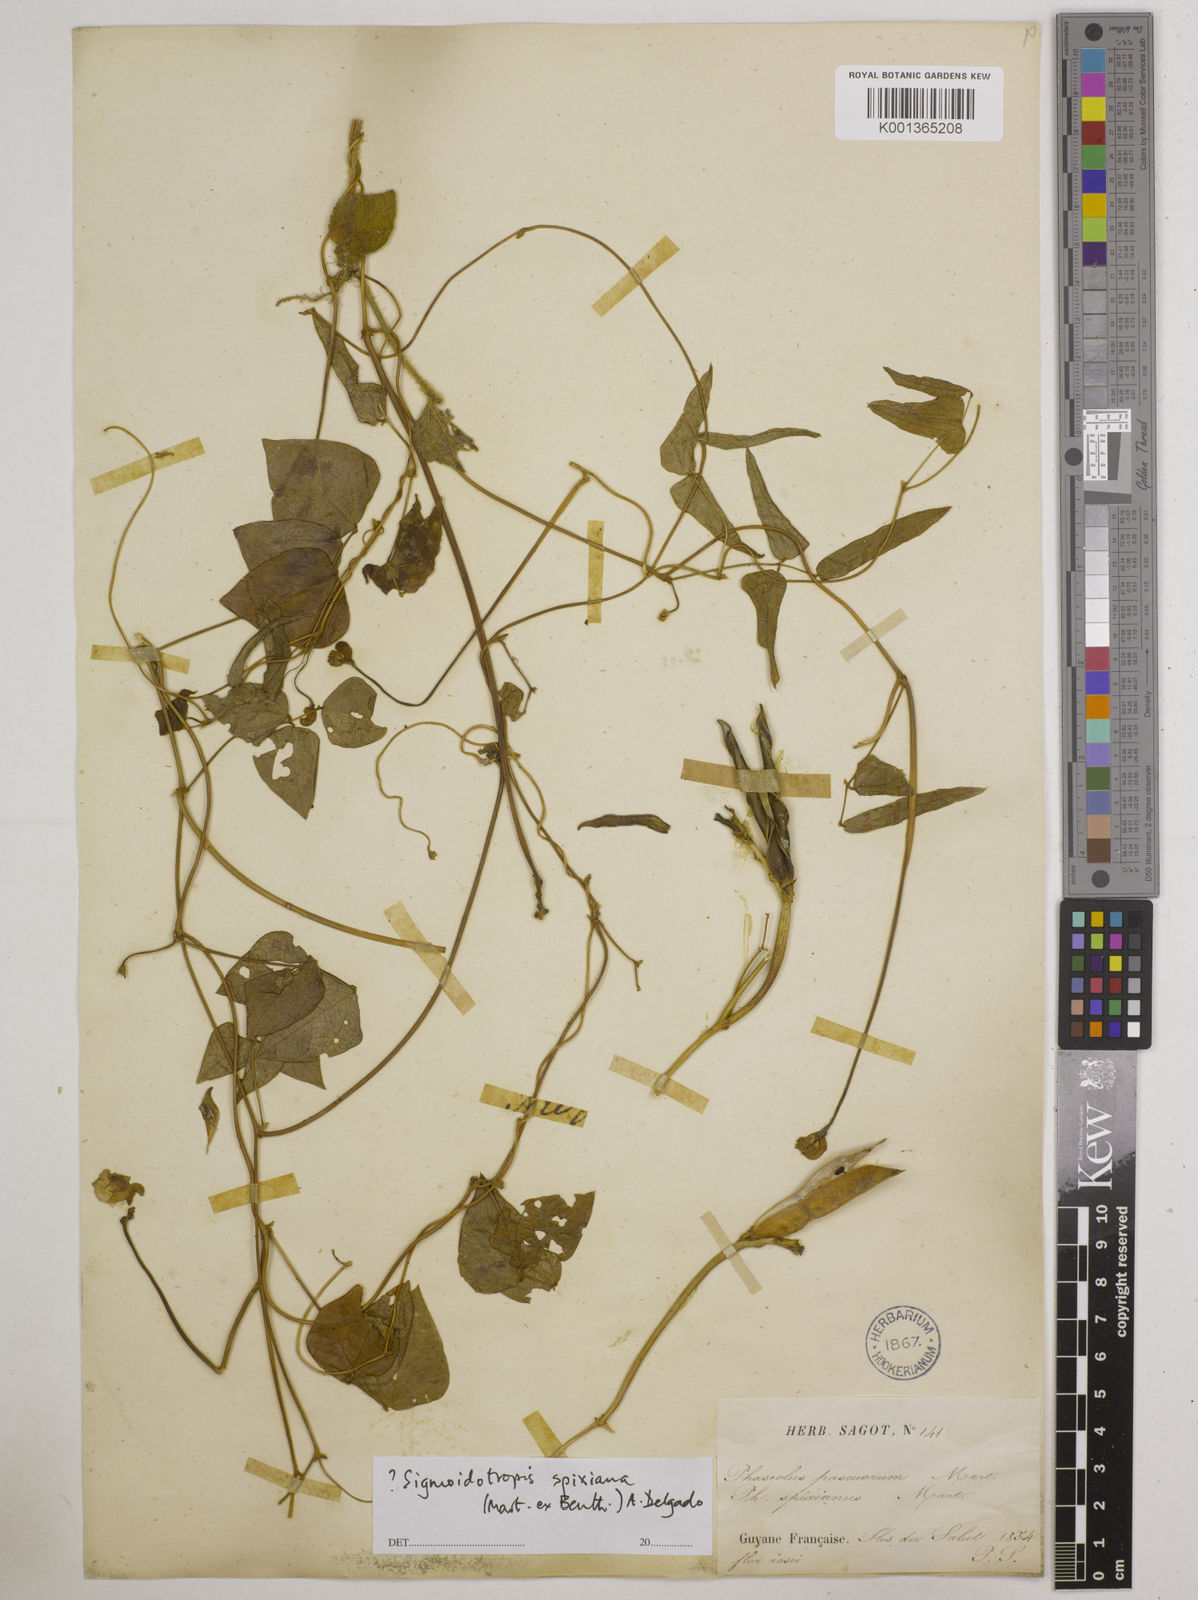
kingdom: Plantae
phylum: Tracheophyta
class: Magnoliopsida
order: Fabales
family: Fabaceae
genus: Ancistrotropis
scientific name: Ancistrotropis peduncularis
